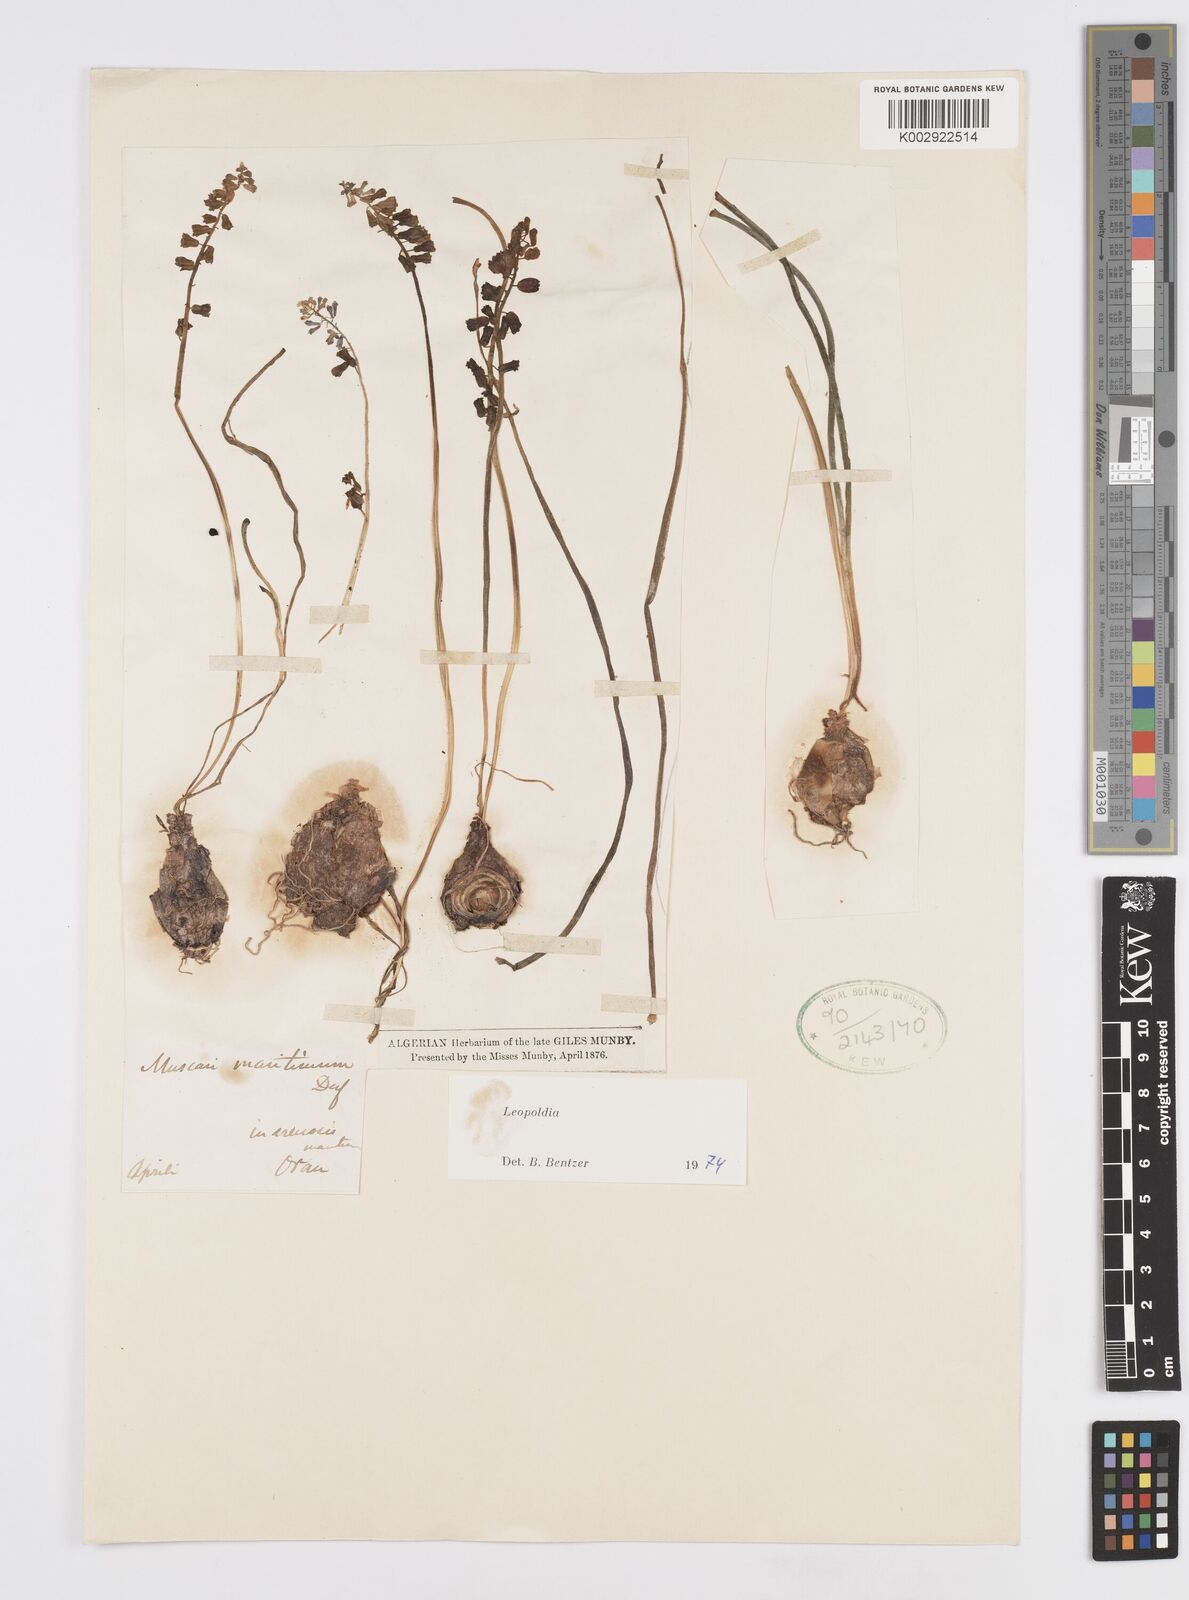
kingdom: Animalia
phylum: Mollusca
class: Cephalopoda
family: Neocomitidae
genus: Leopoldia
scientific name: Leopoldia
